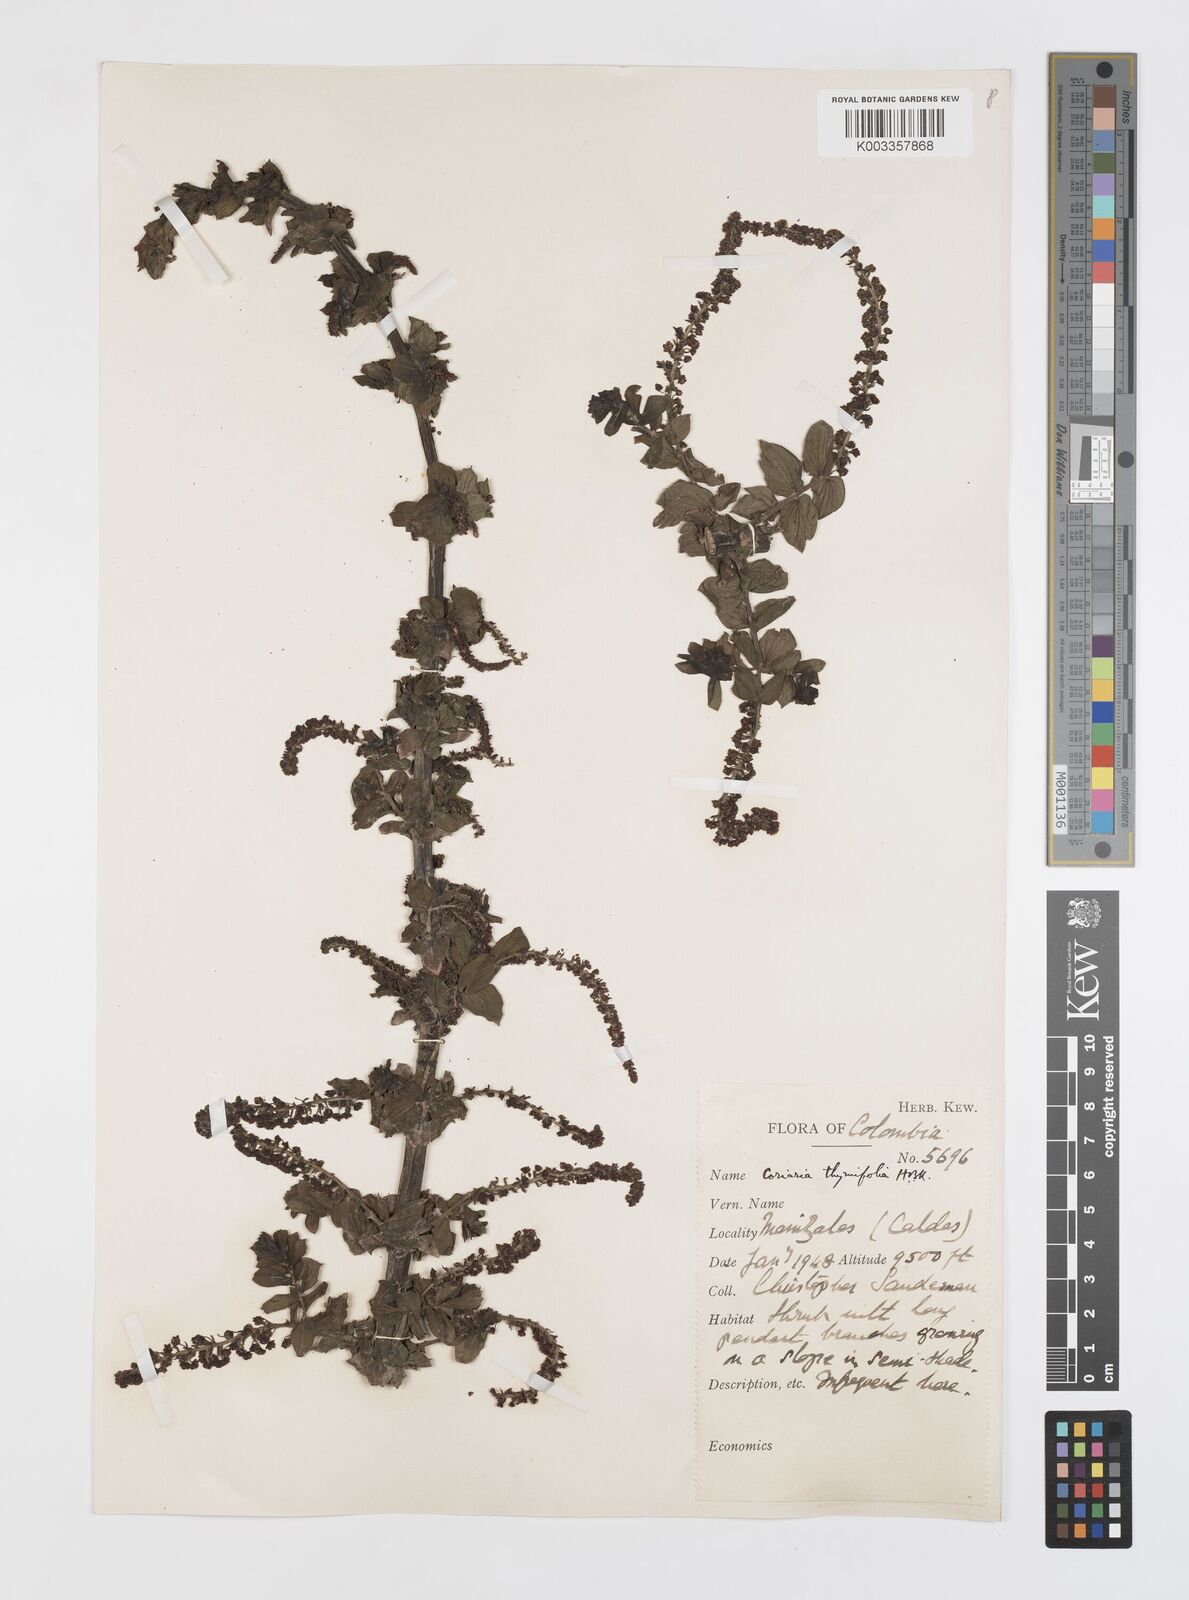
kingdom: Plantae
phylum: Tracheophyta
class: Magnoliopsida
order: Cucurbitales
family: Coriariaceae
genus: Coriaria
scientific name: Coriaria microphylla
